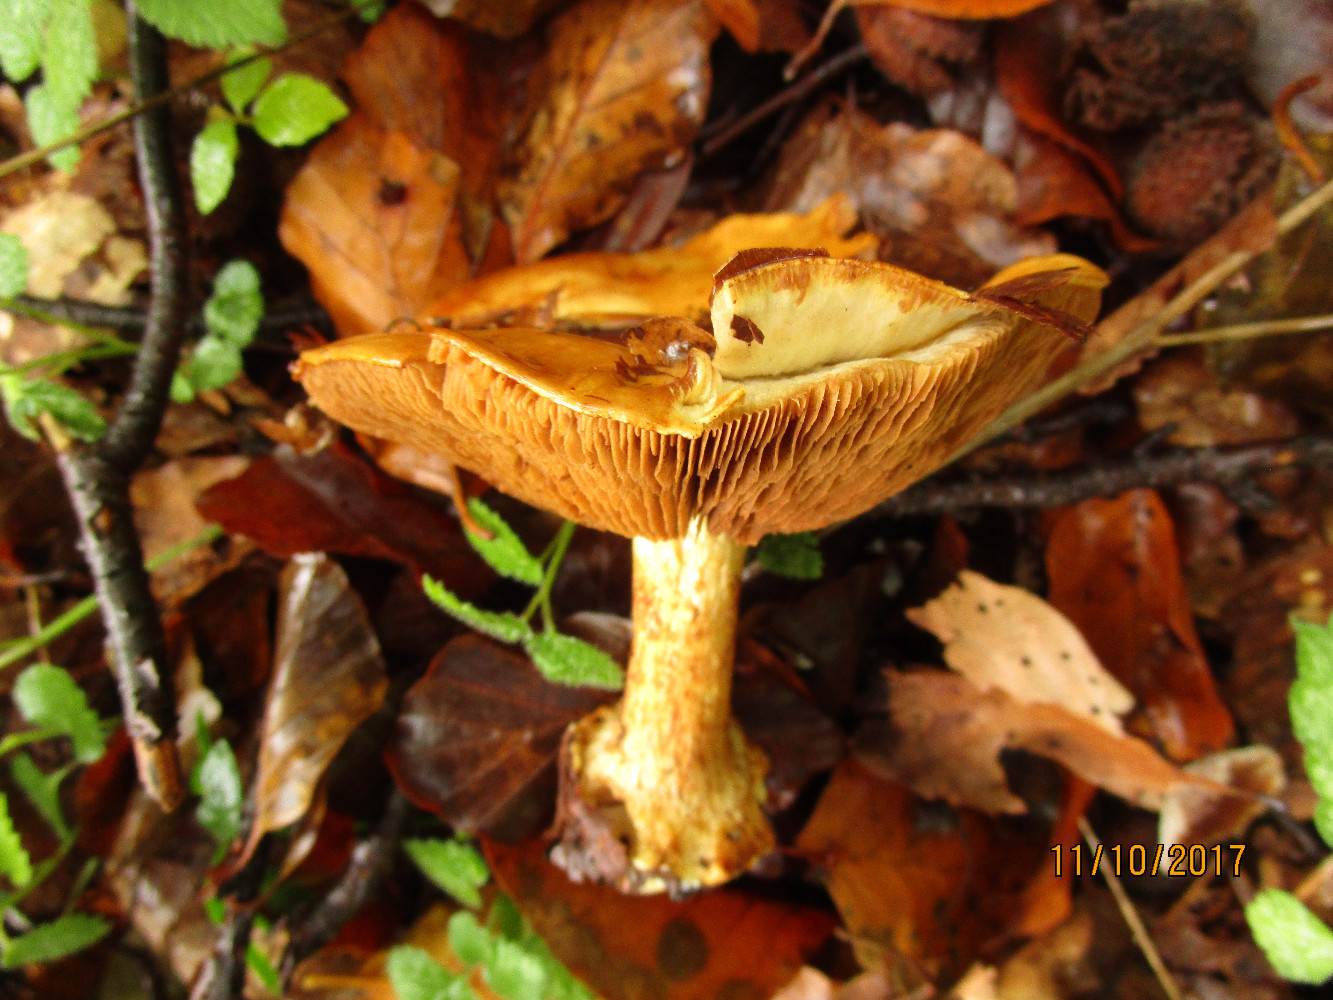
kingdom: Fungi
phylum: Basidiomycota
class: Agaricomycetes
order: Agaricales
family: Cortinariaceae
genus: Calonarius
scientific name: Calonarius suaveolens
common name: sødtduftende slørhat
